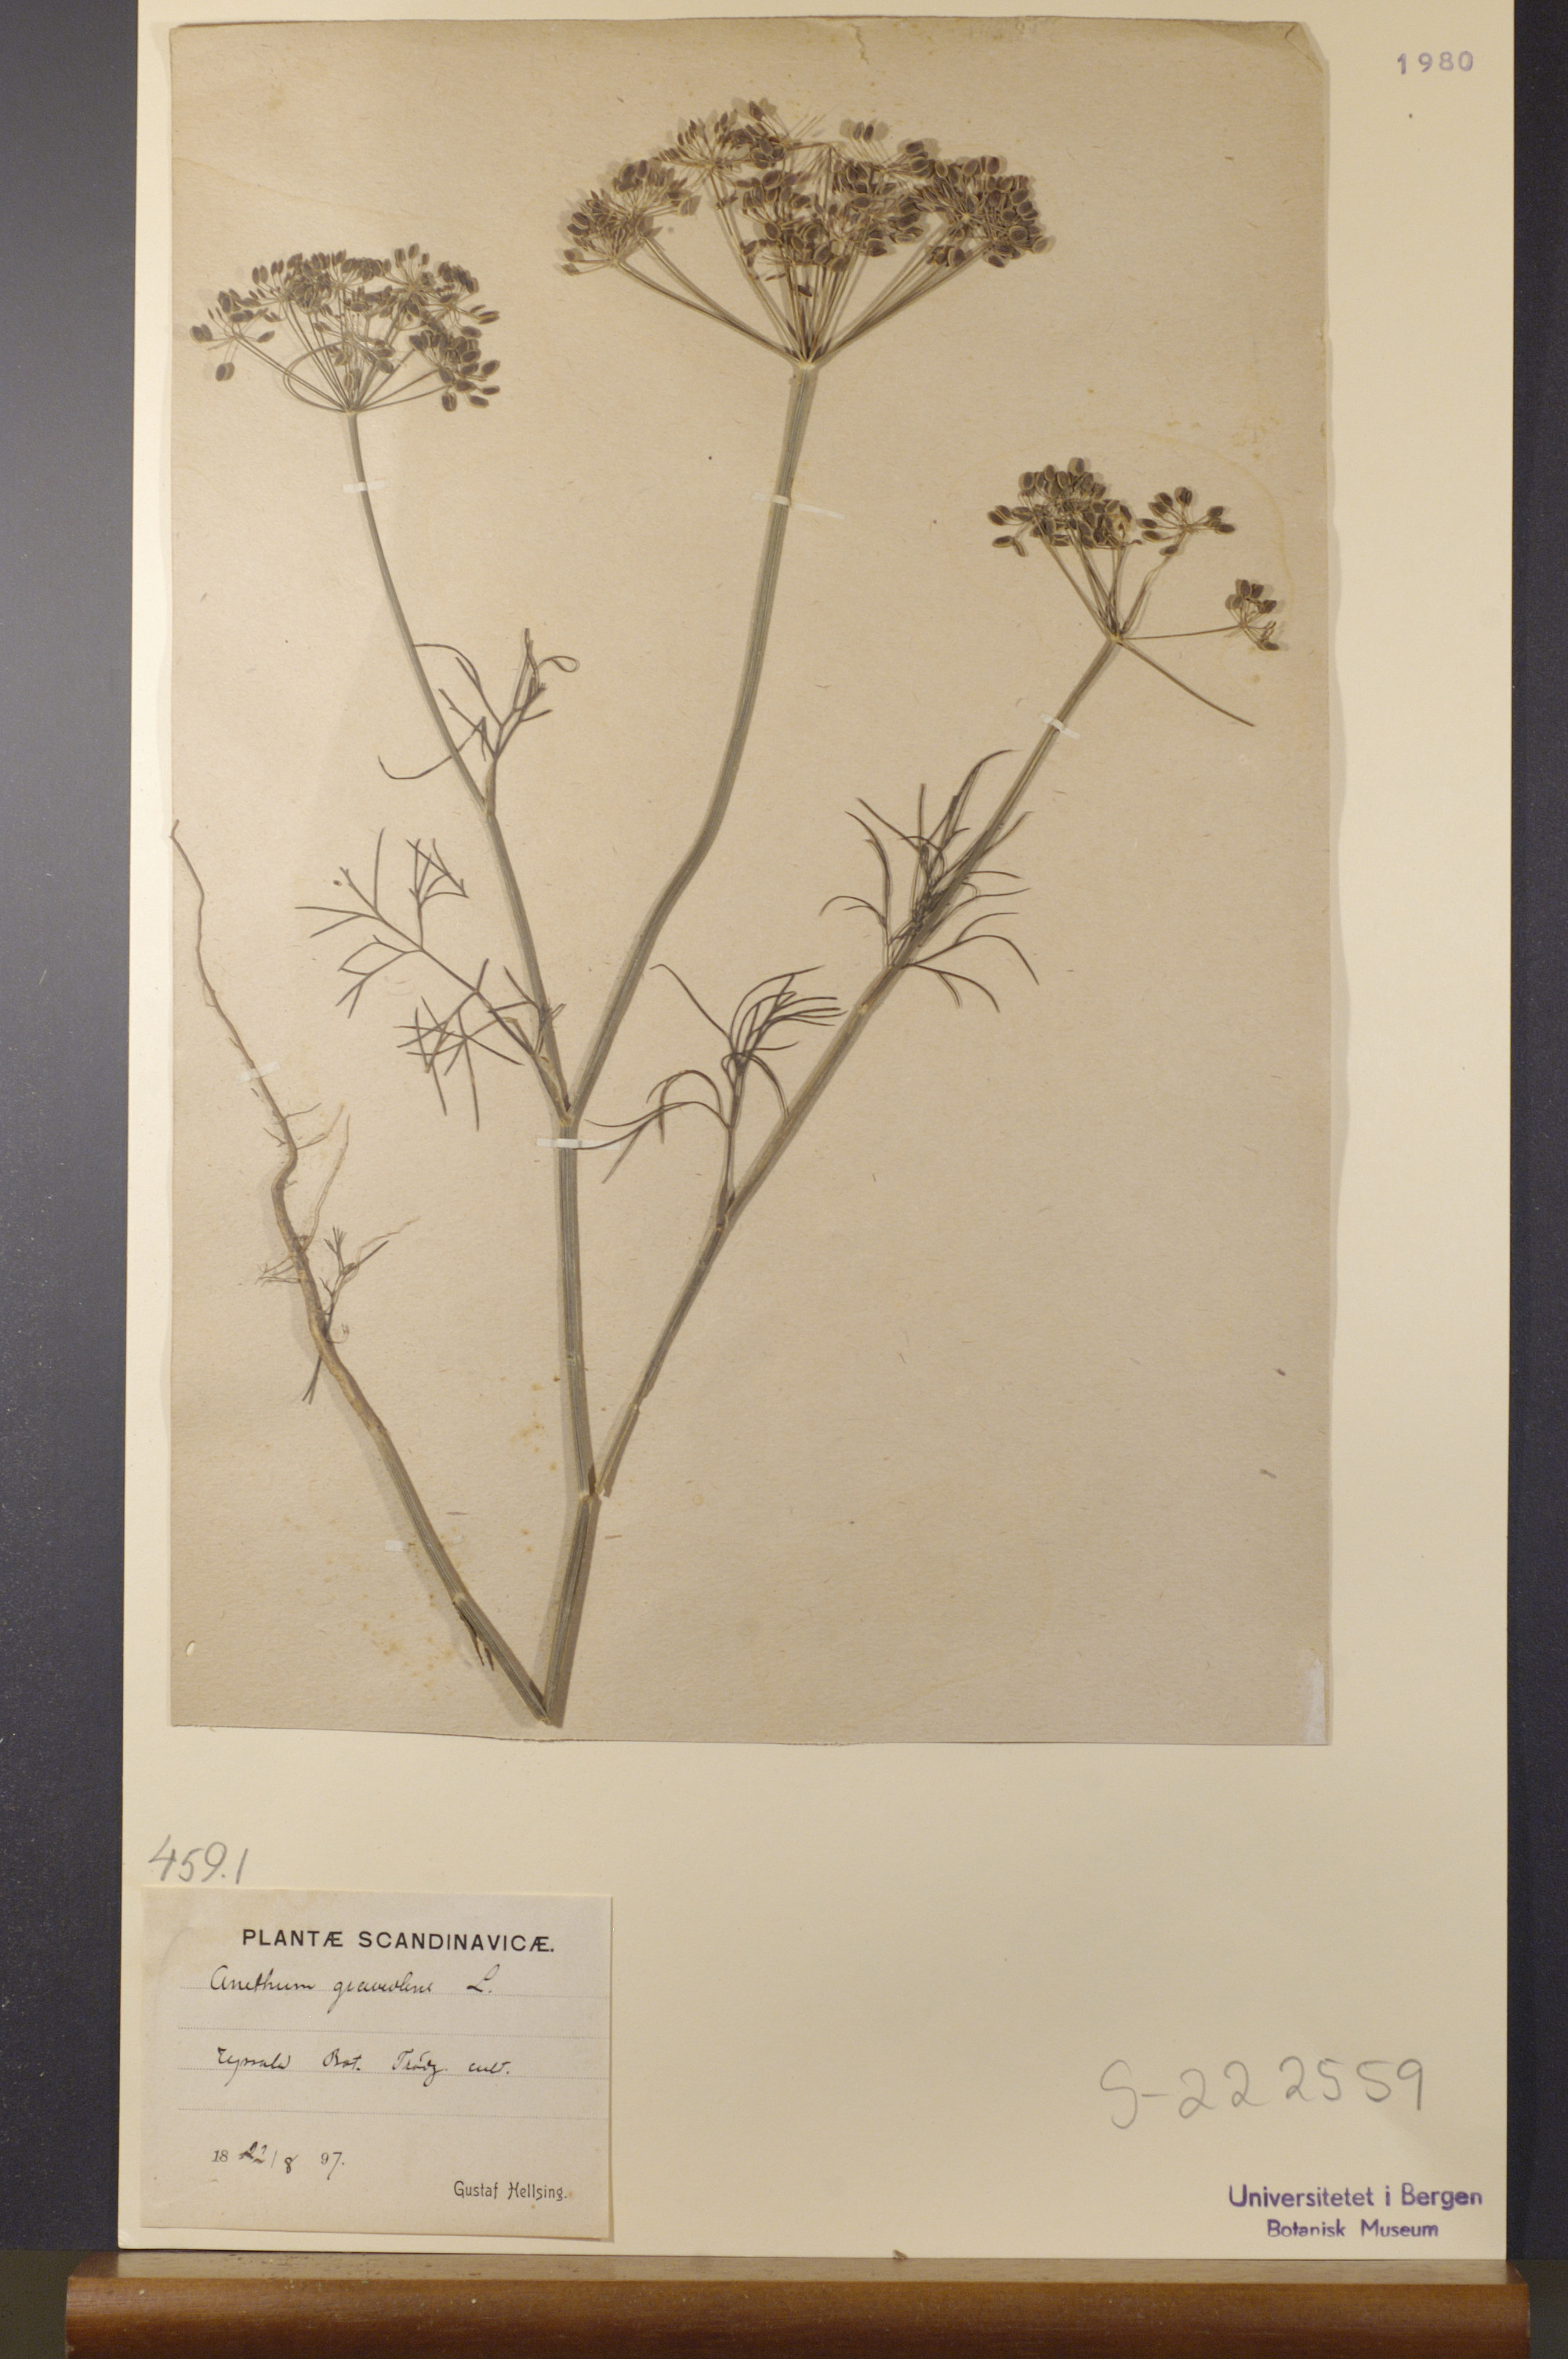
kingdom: Plantae
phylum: Tracheophyta
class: Magnoliopsida
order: Apiales
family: Apiaceae
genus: Anethum
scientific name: Anethum graveolens
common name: Dill
